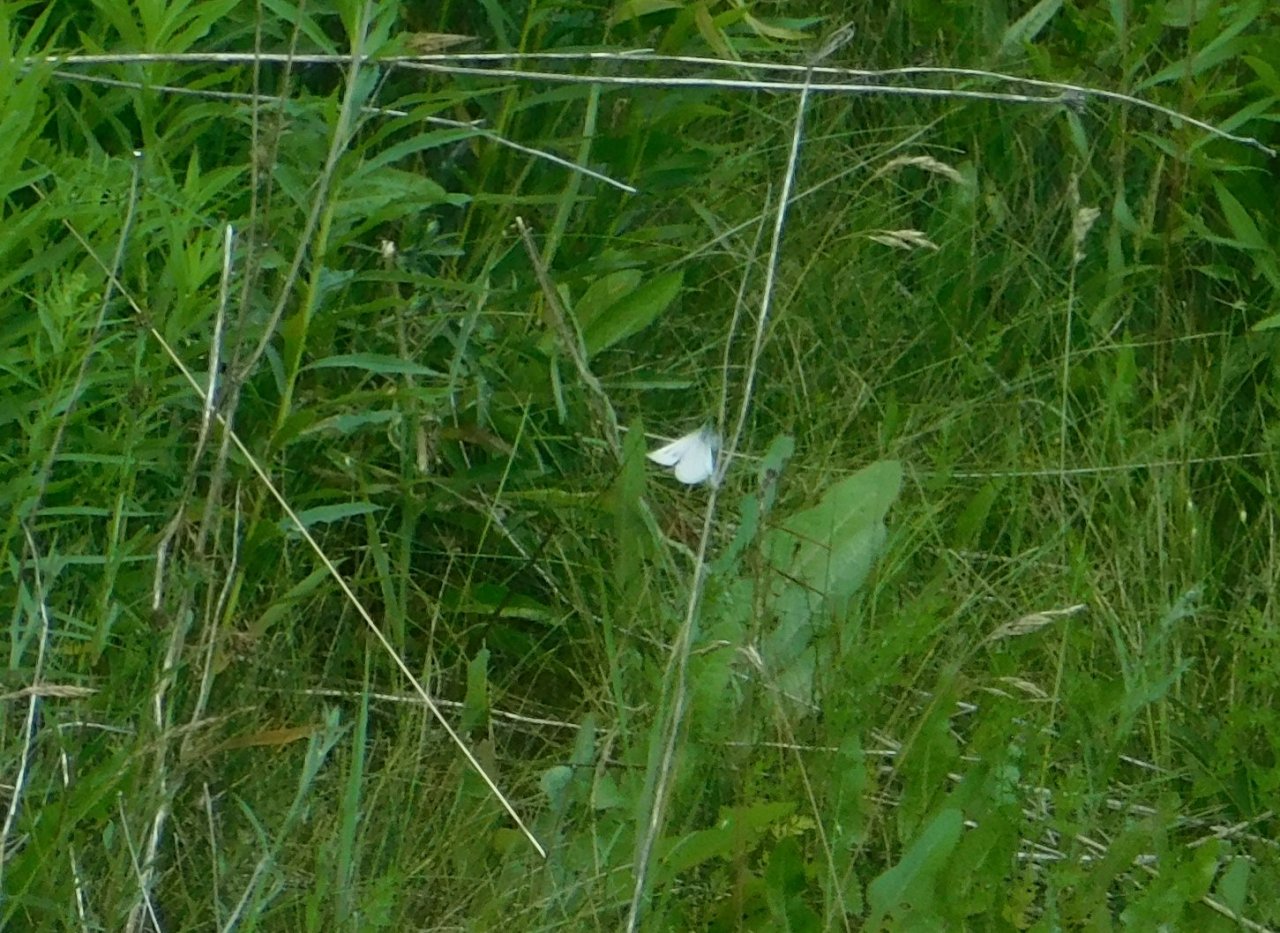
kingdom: Animalia
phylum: Arthropoda
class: Insecta
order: Lepidoptera
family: Pieridae
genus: Pieris
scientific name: Pieris rapae
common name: Cabbage White
